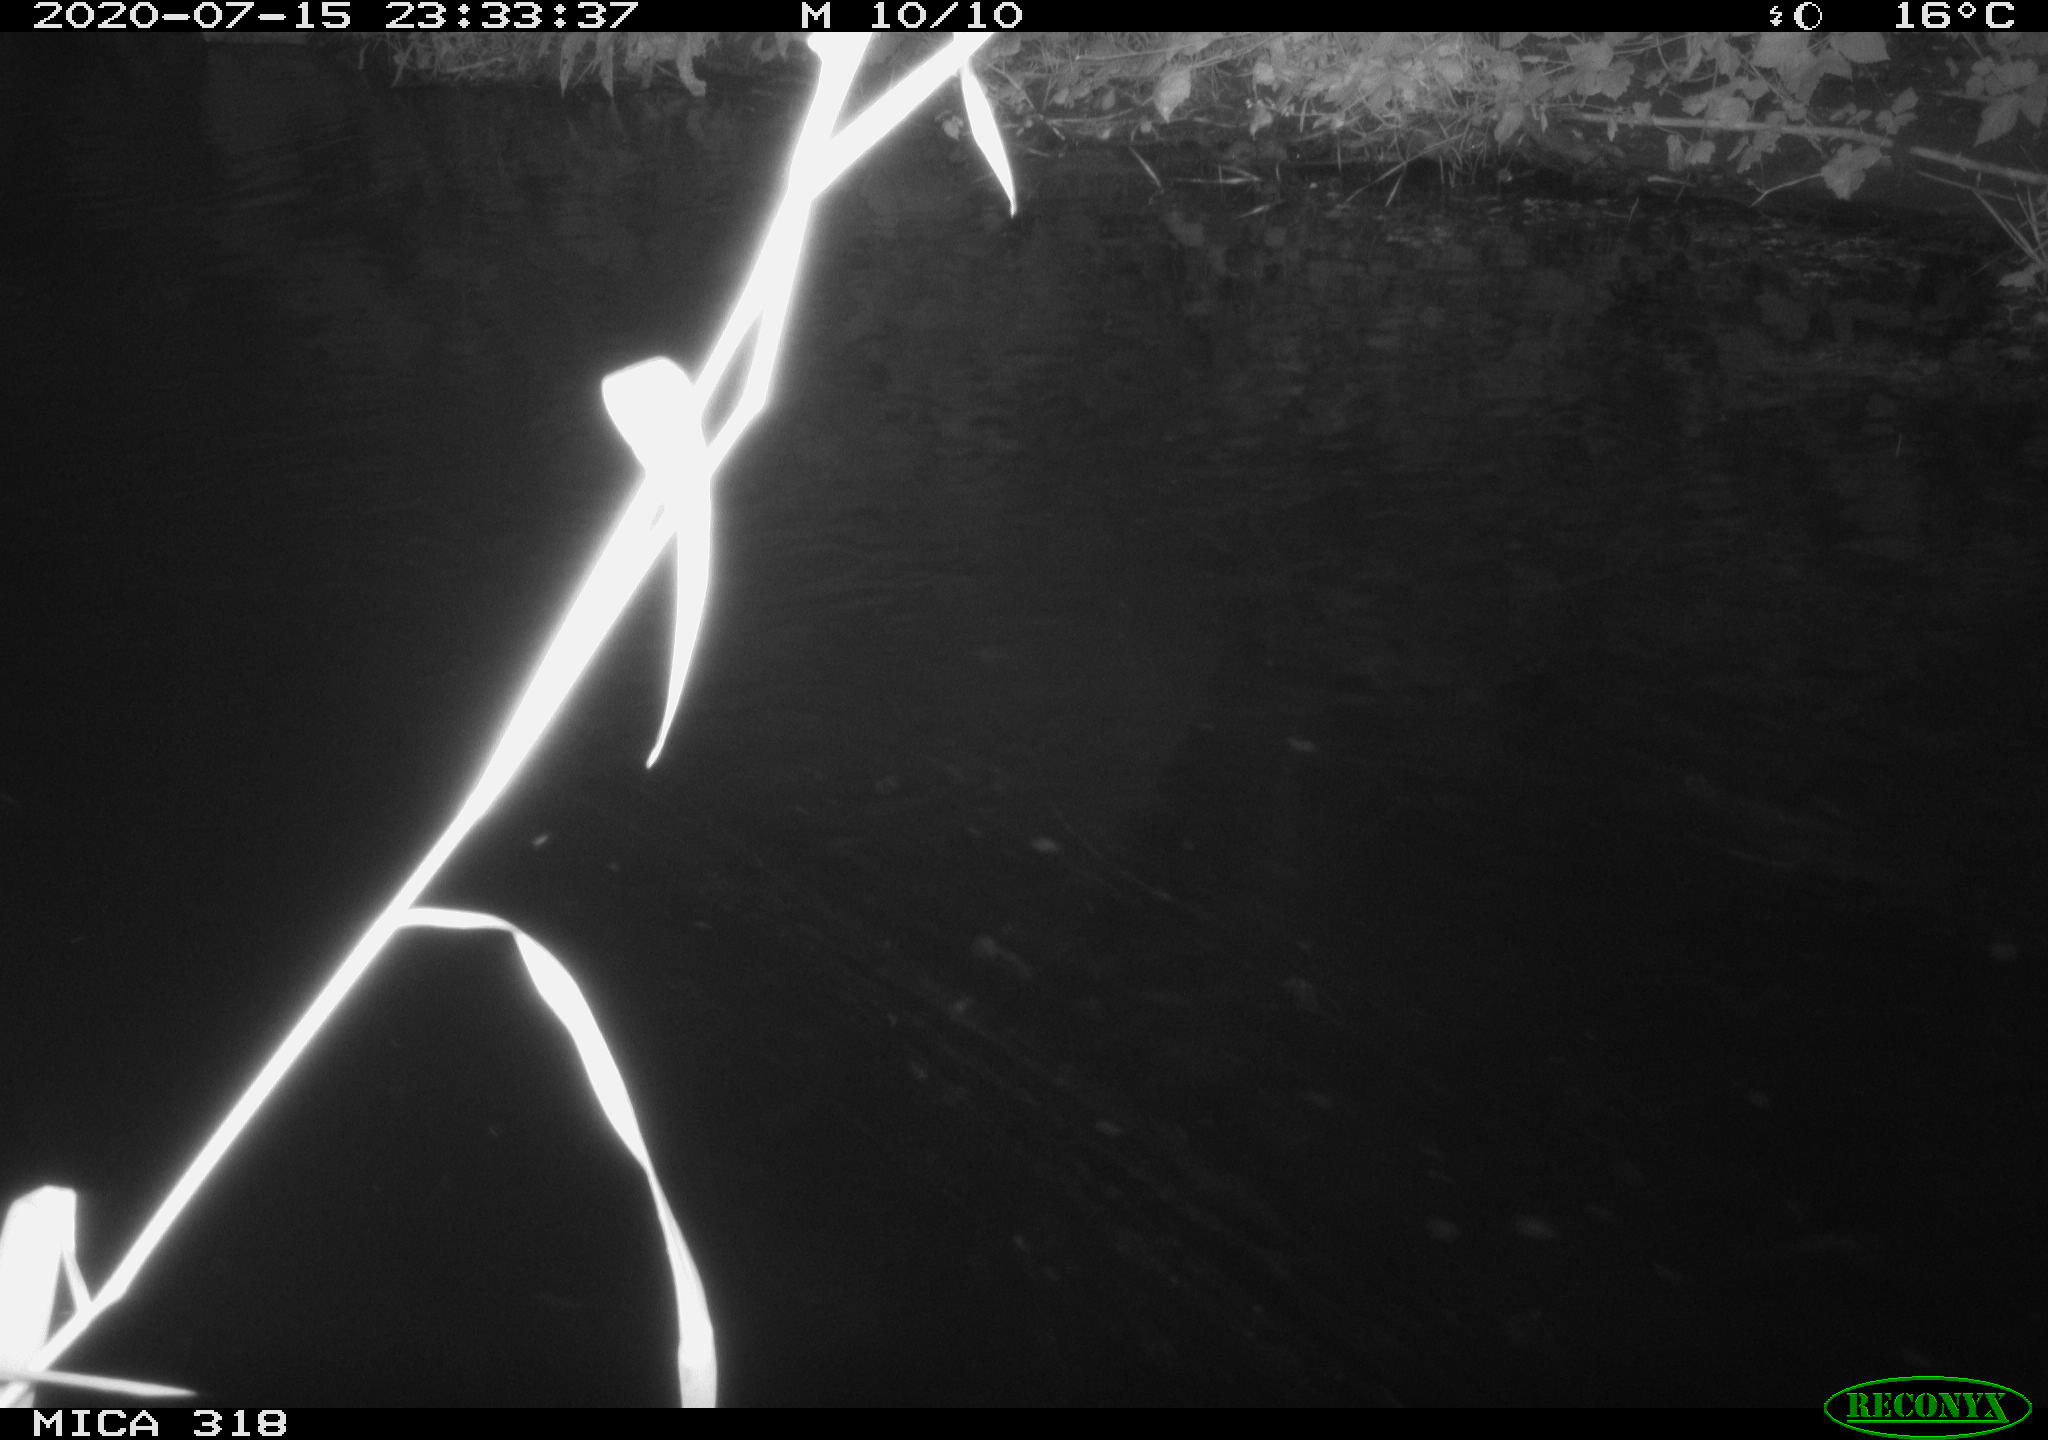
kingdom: Animalia
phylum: Chordata
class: Mammalia
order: Rodentia
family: Muridae
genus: Rattus
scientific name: Rattus norvegicus
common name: Brown rat
